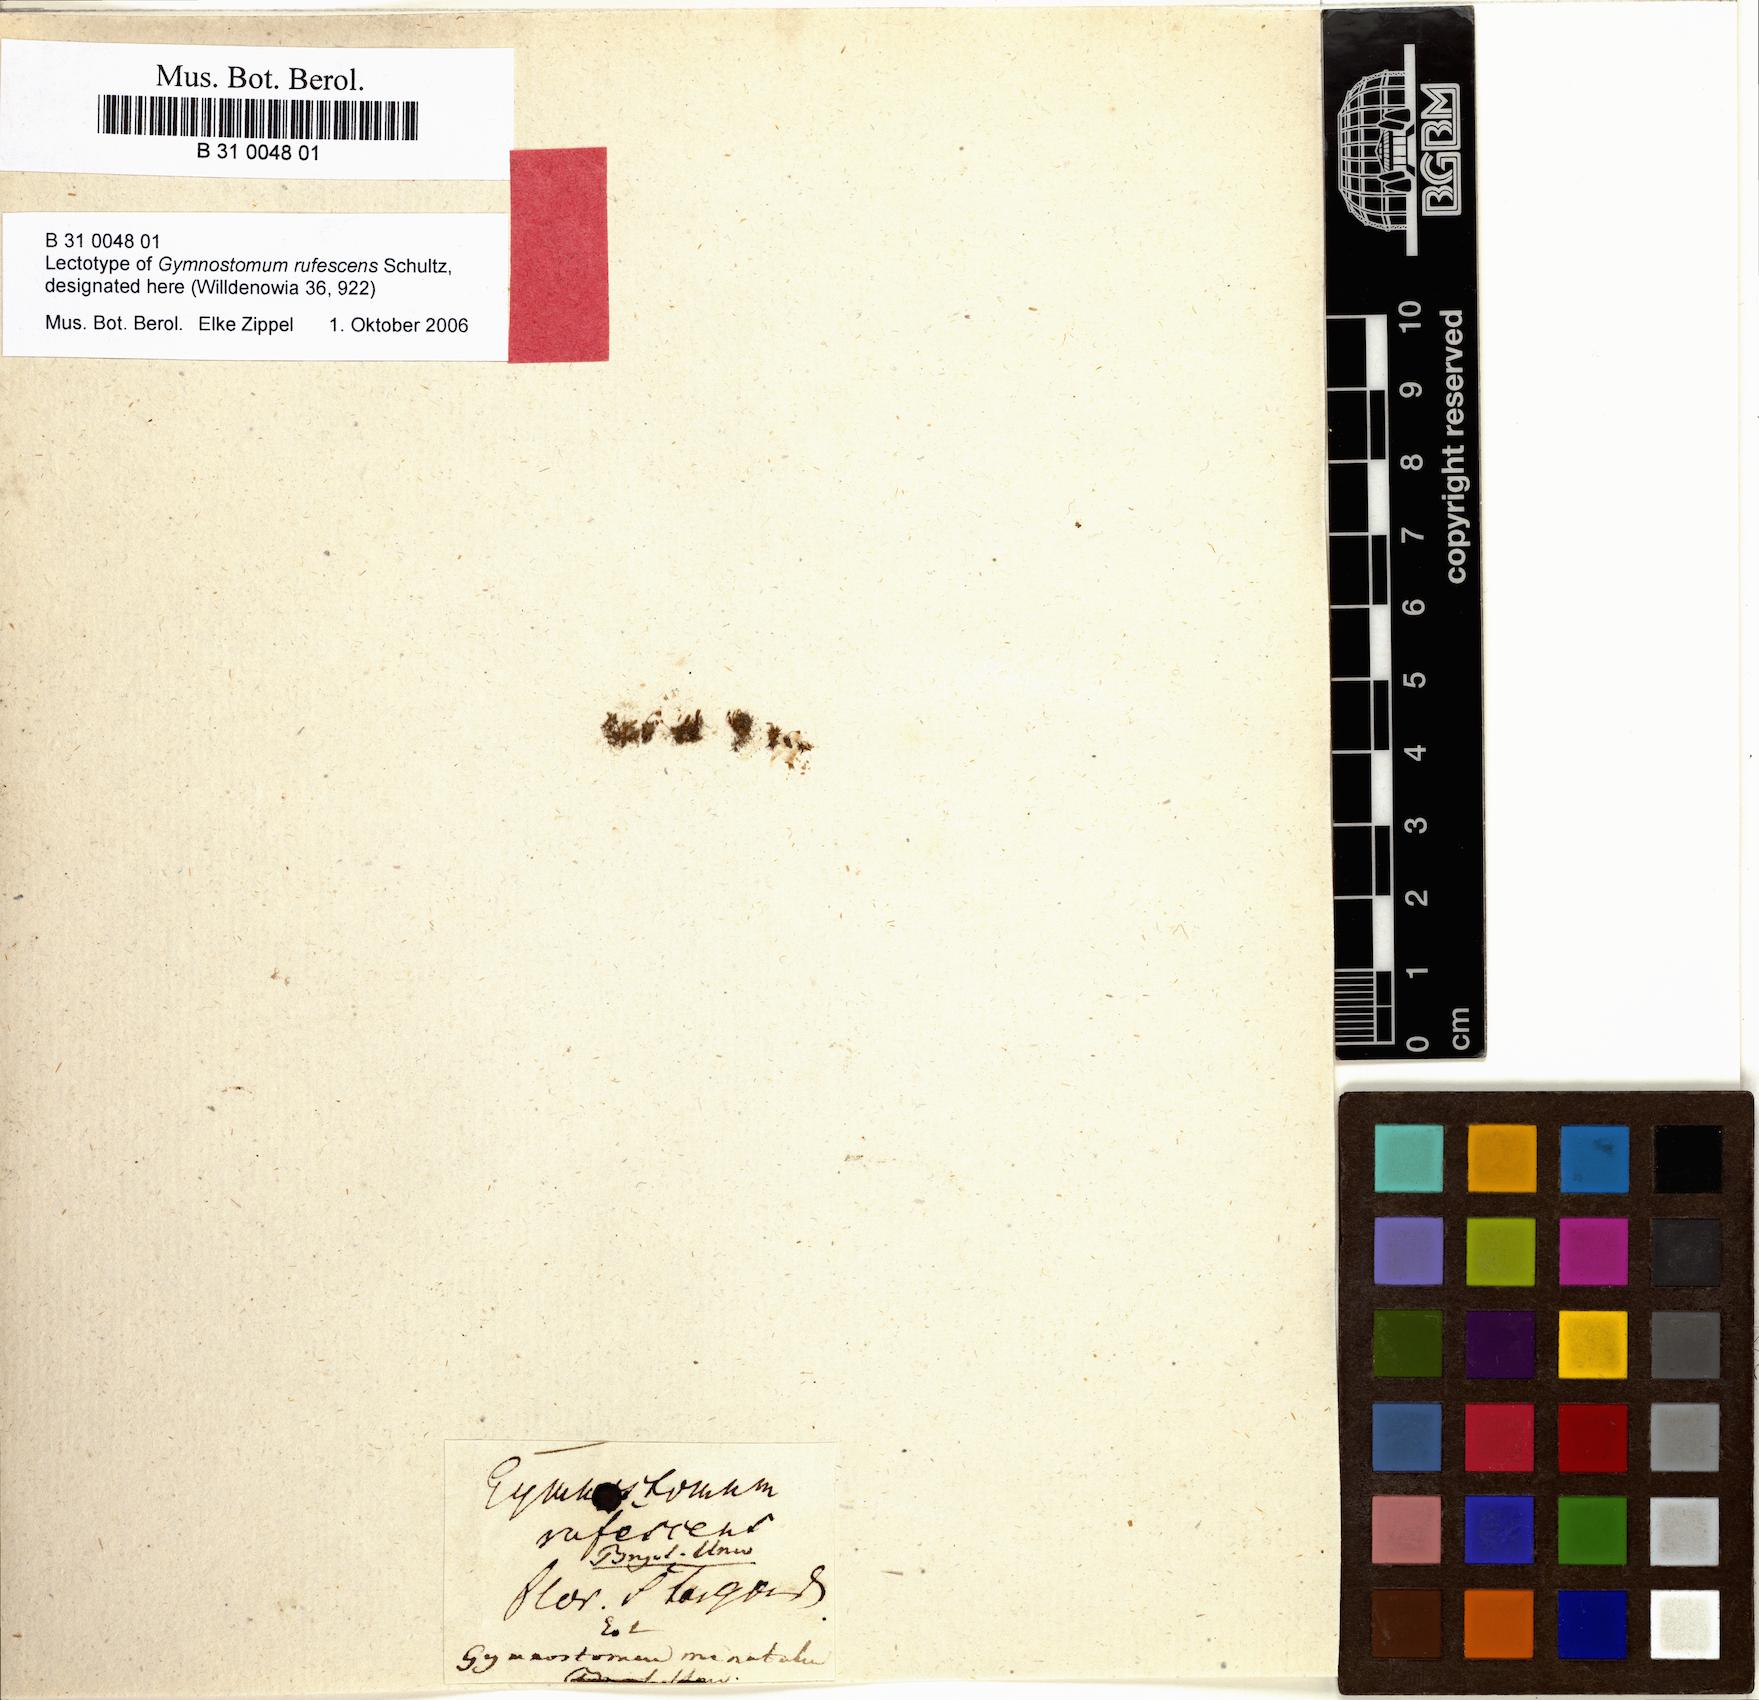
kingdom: Plantae
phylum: Bryophyta
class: Bryopsida
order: Pottiales
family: Pottiaceae
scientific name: Pottiaceae
